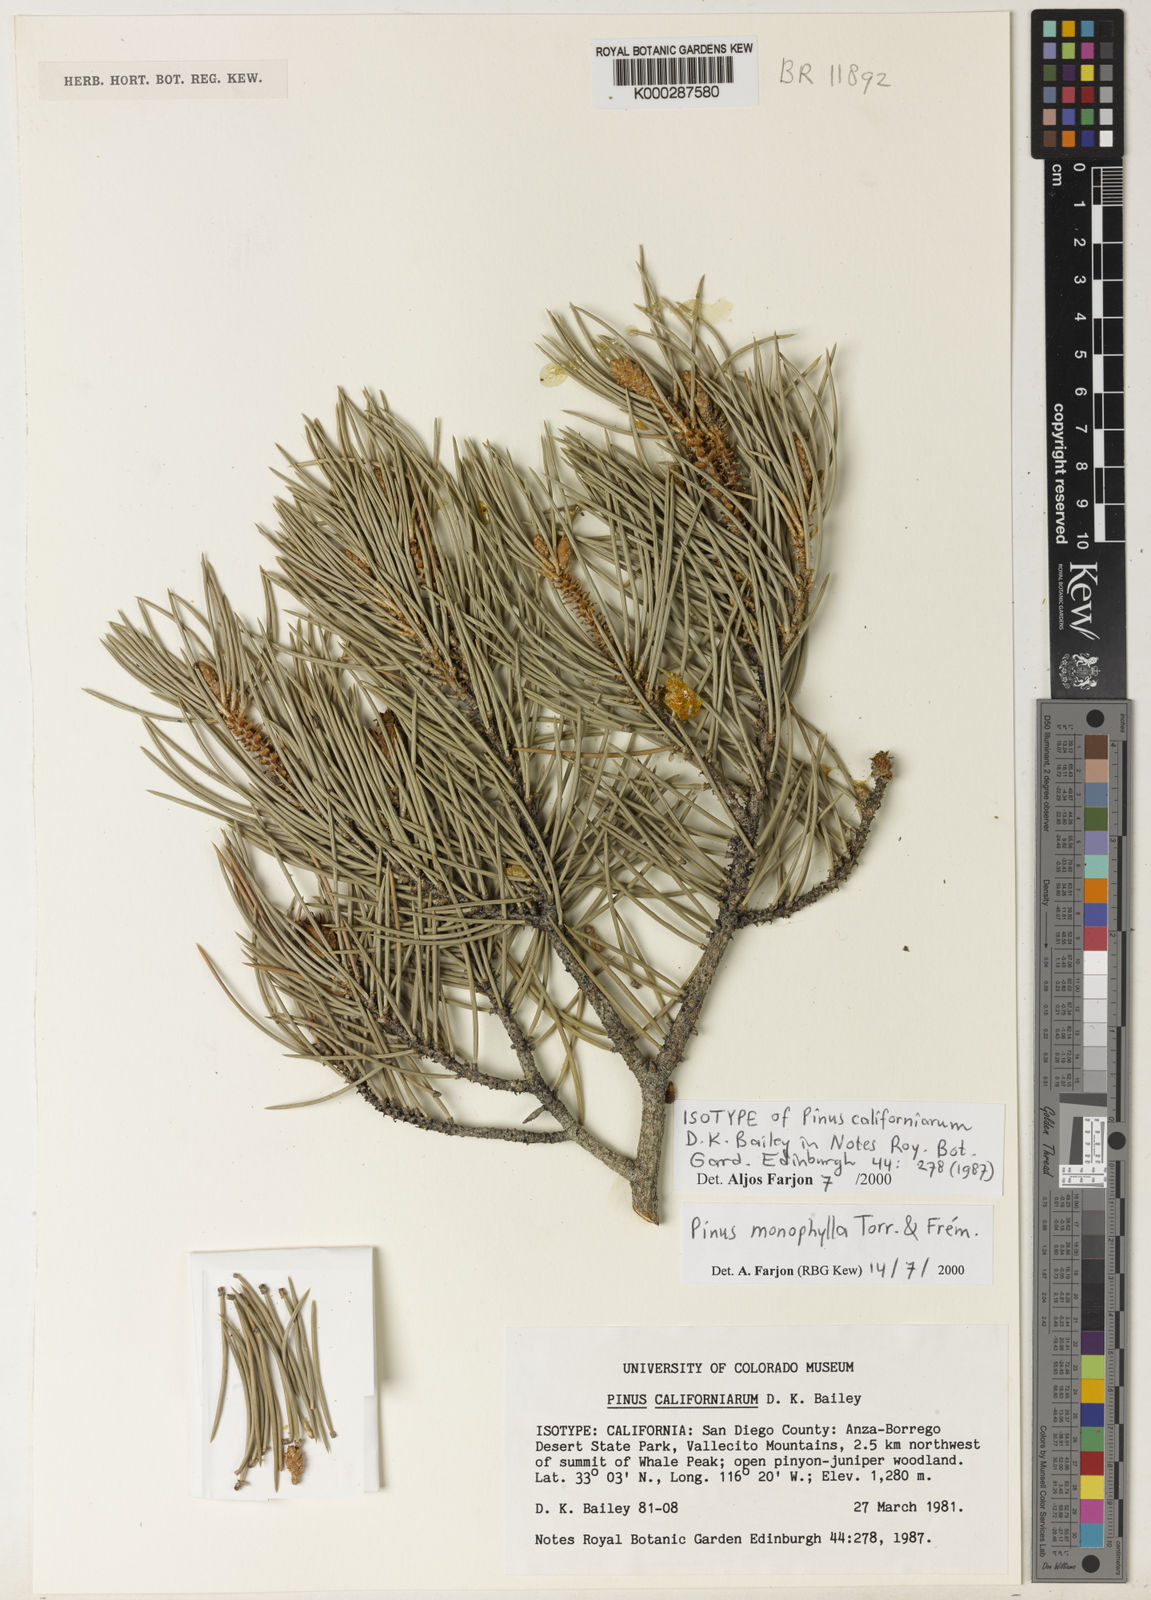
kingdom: Plantae
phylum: Tracheophyta
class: Pinopsida
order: Pinales
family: Pinaceae
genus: Pinus
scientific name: Pinus
